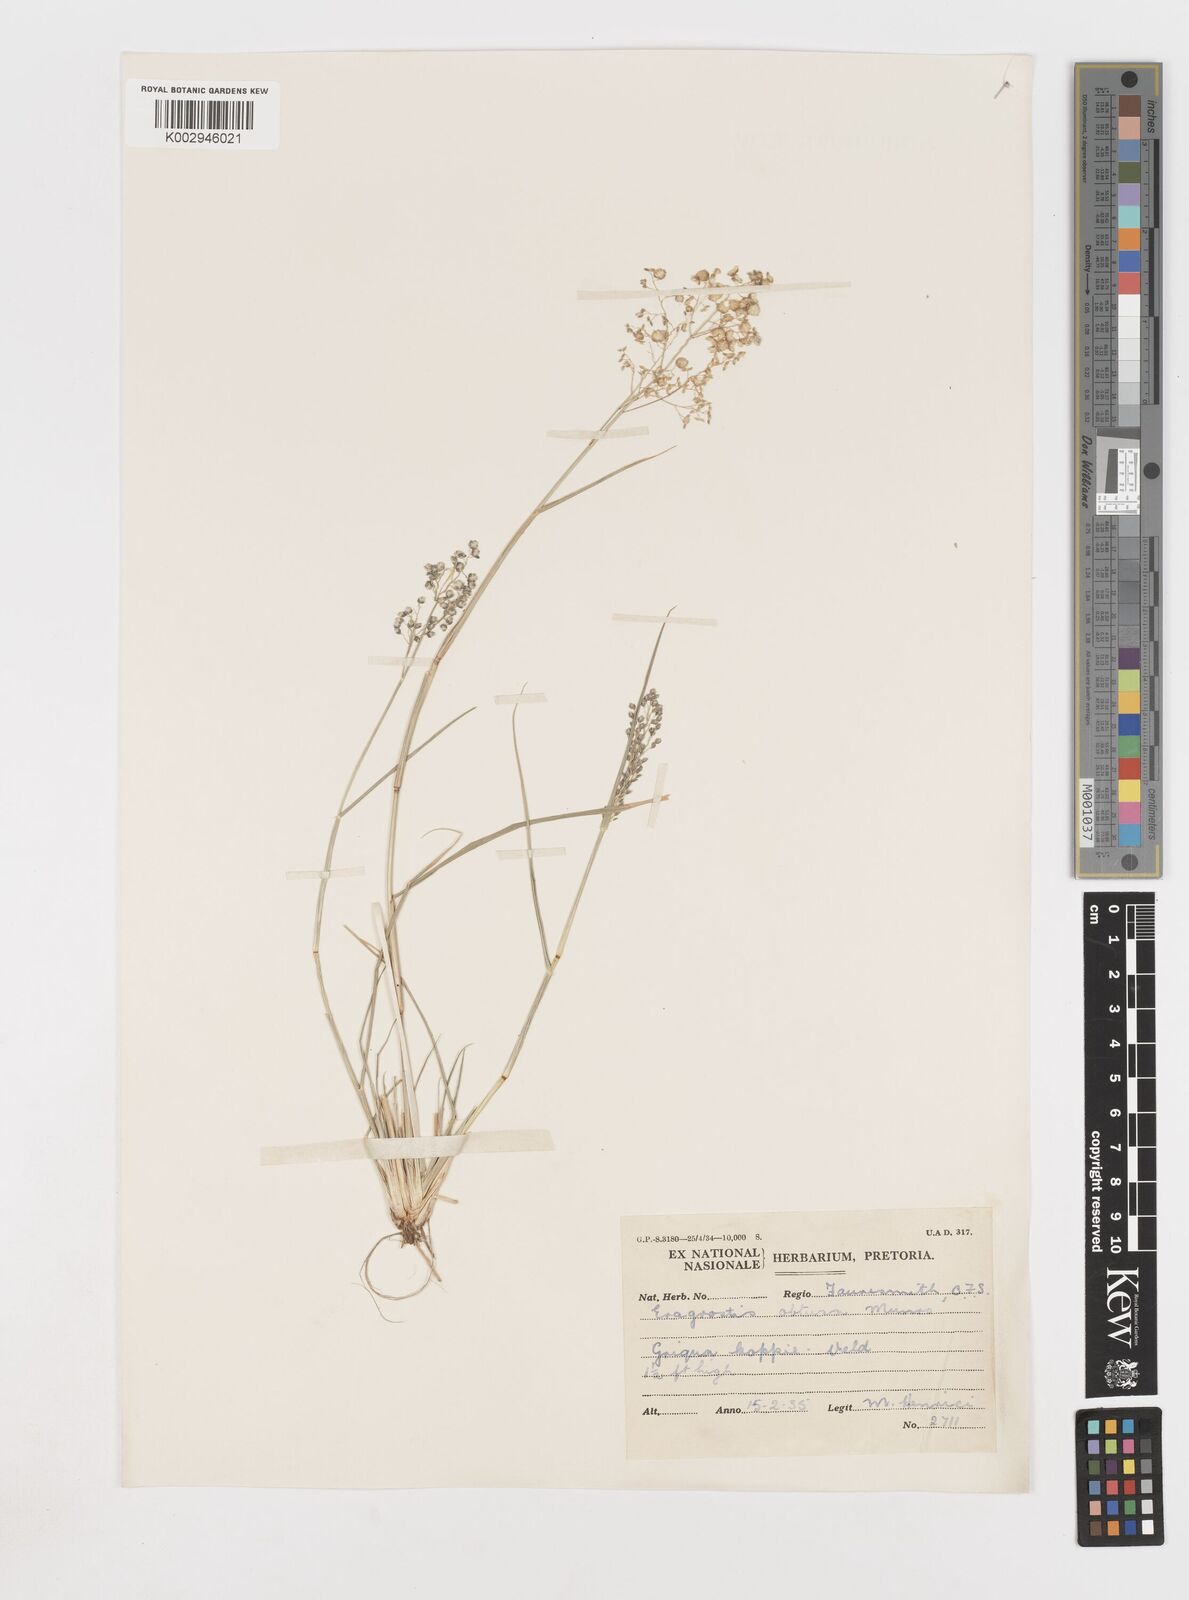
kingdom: Plantae
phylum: Tracheophyta
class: Liliopsida
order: Poales
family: Poaceae
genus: Eragrostis
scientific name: Eragrostis obtusa
